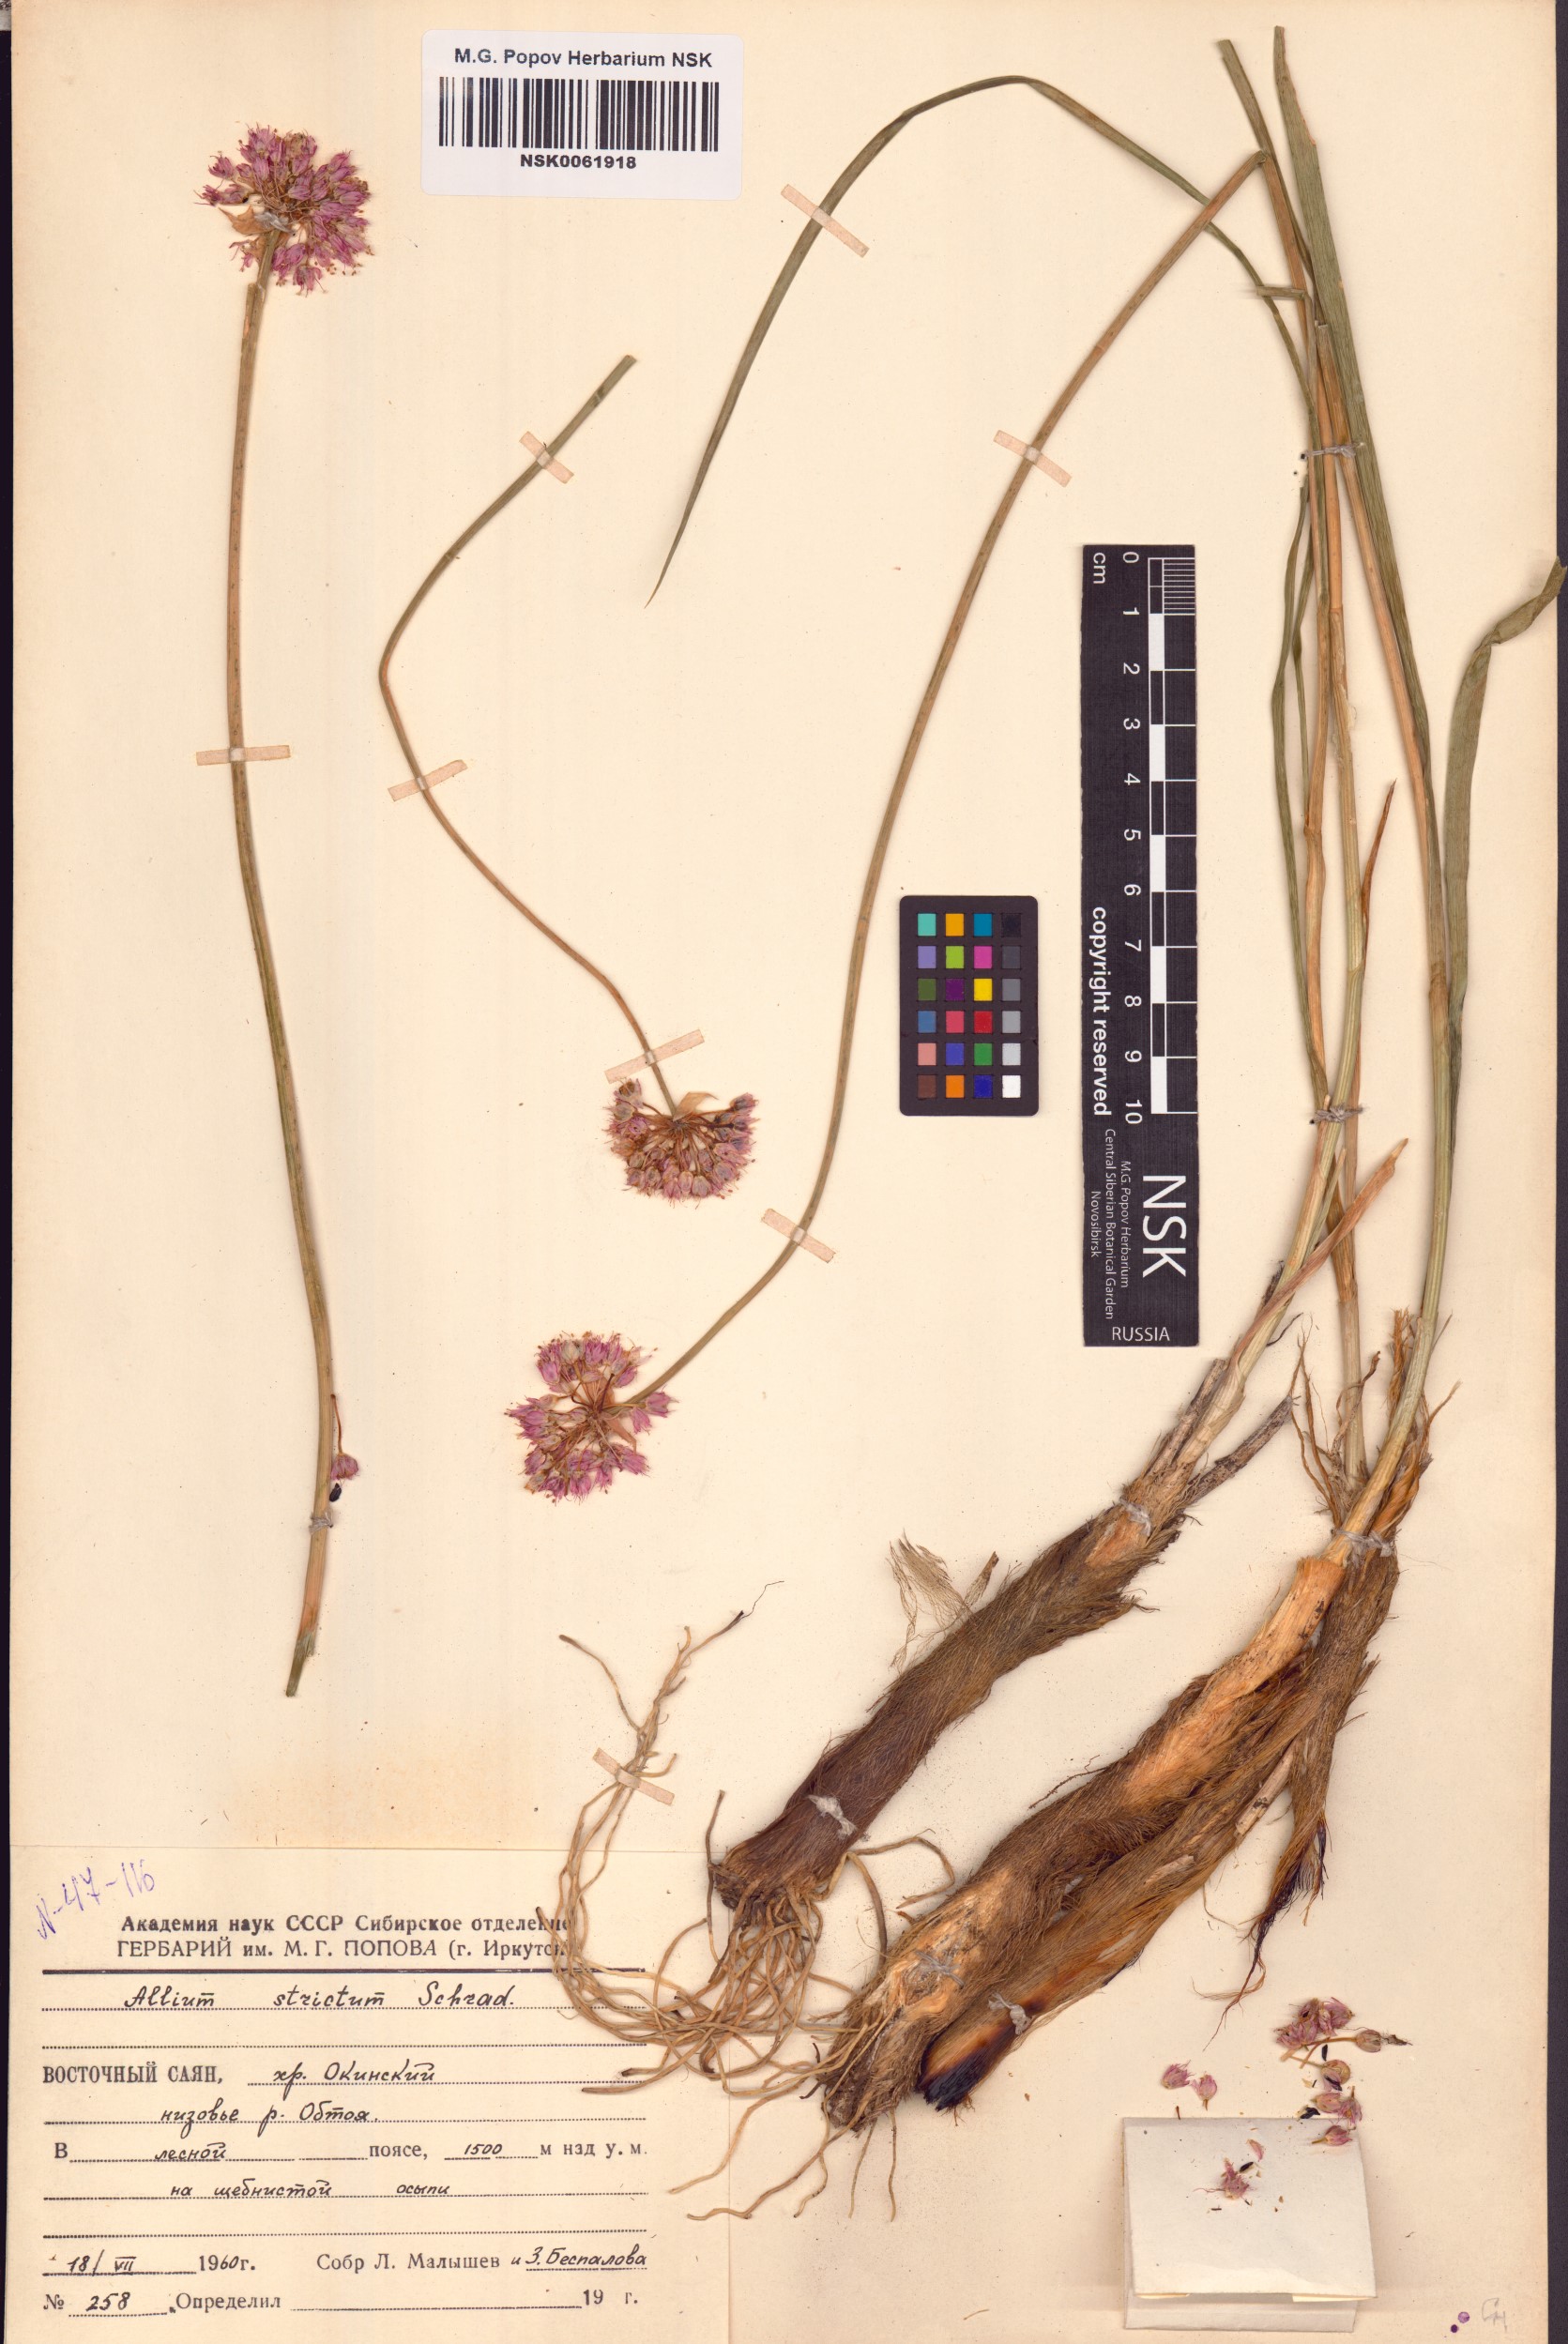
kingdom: Plantae
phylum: Tracheophyta
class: Liliopsida
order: Asparagales
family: Amaryllidaceae
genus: Allium
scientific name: Allium strictum
